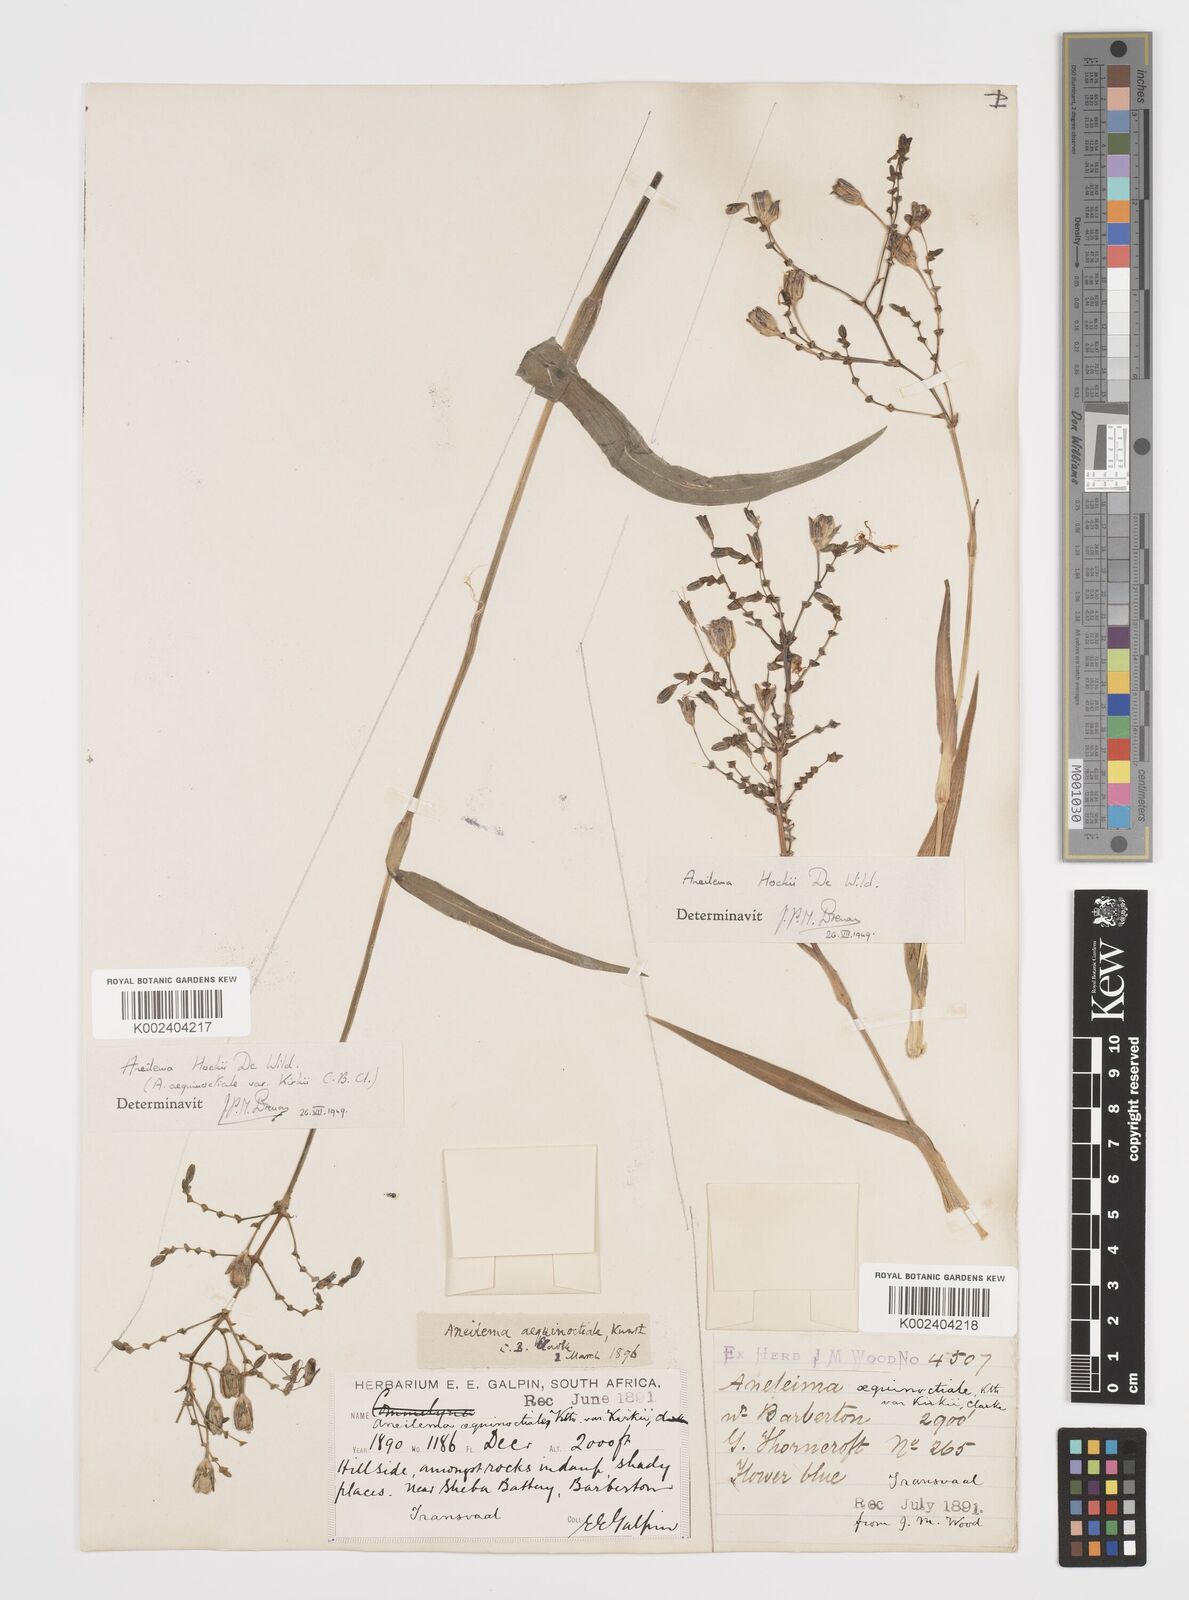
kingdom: Plantae
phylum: Tracheophyta
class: Liliopsida
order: Commelinales
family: Commelinaceae
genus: Aneilema
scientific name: Aneilema hockii
